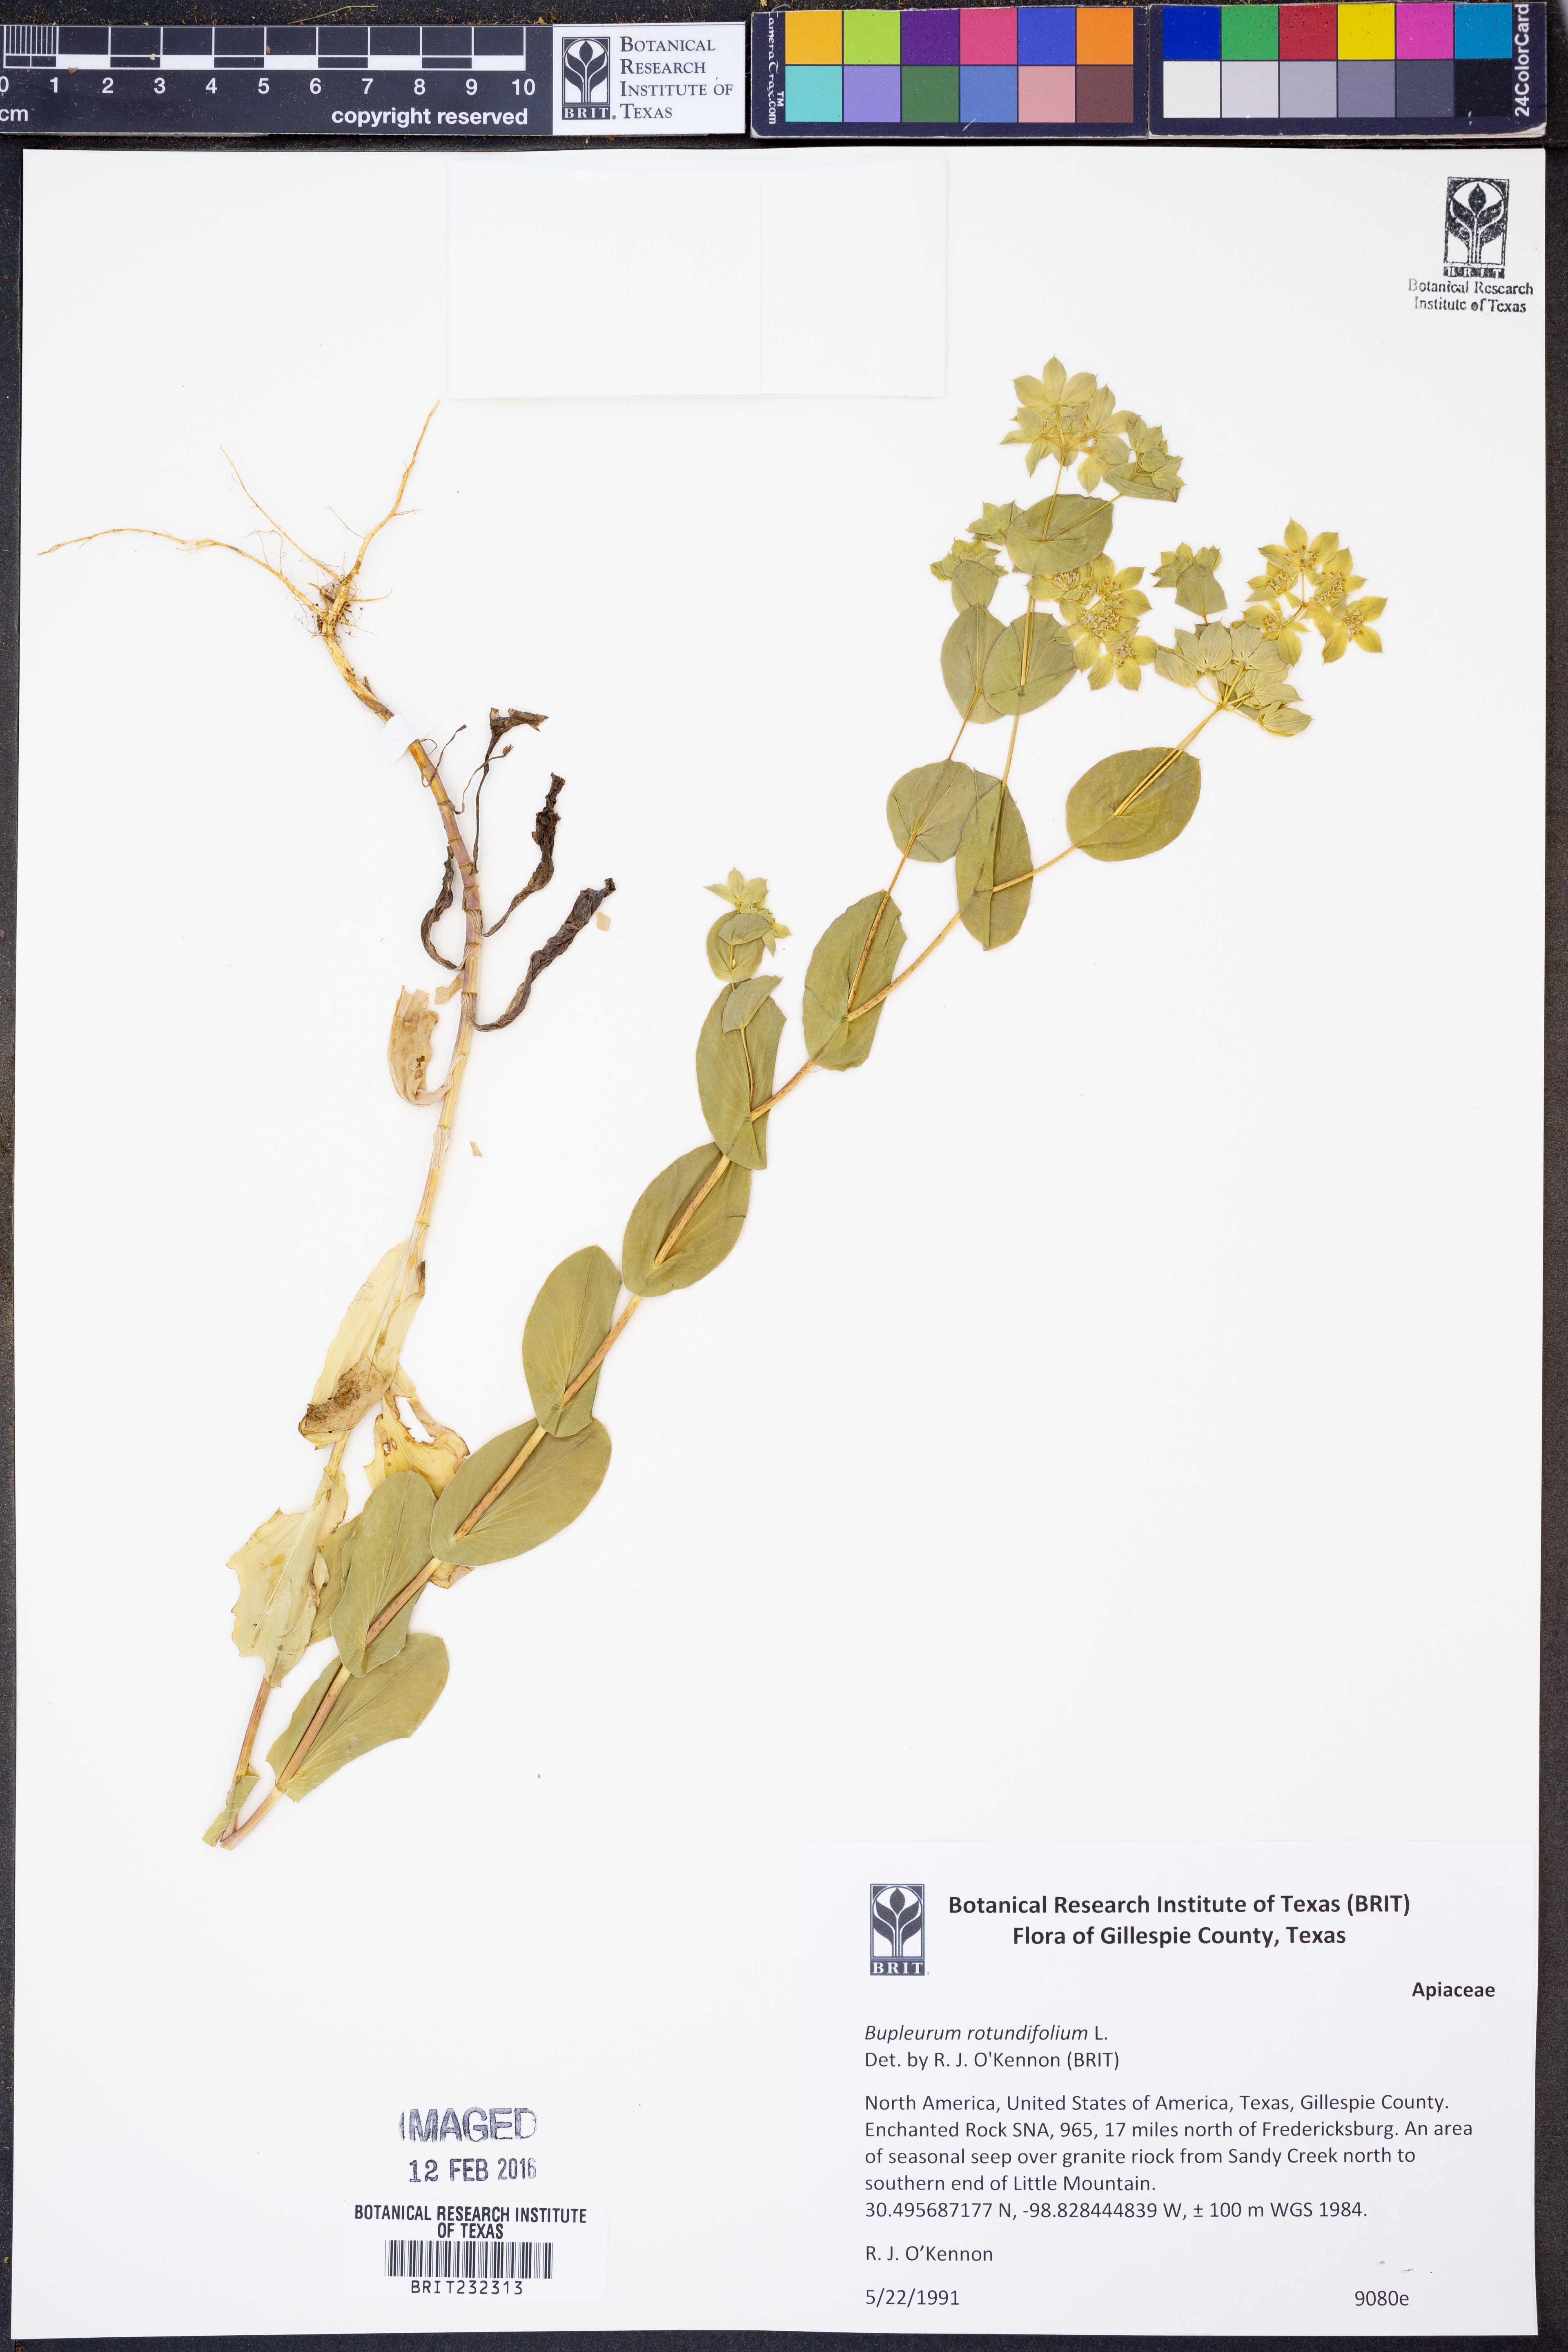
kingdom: Plantae
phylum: Tracheophyta
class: Magnoliopsida
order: Apiales
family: Apiaceae
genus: Bupleurum
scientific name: Bupleurum rotundifolium
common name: Thorow-wax
